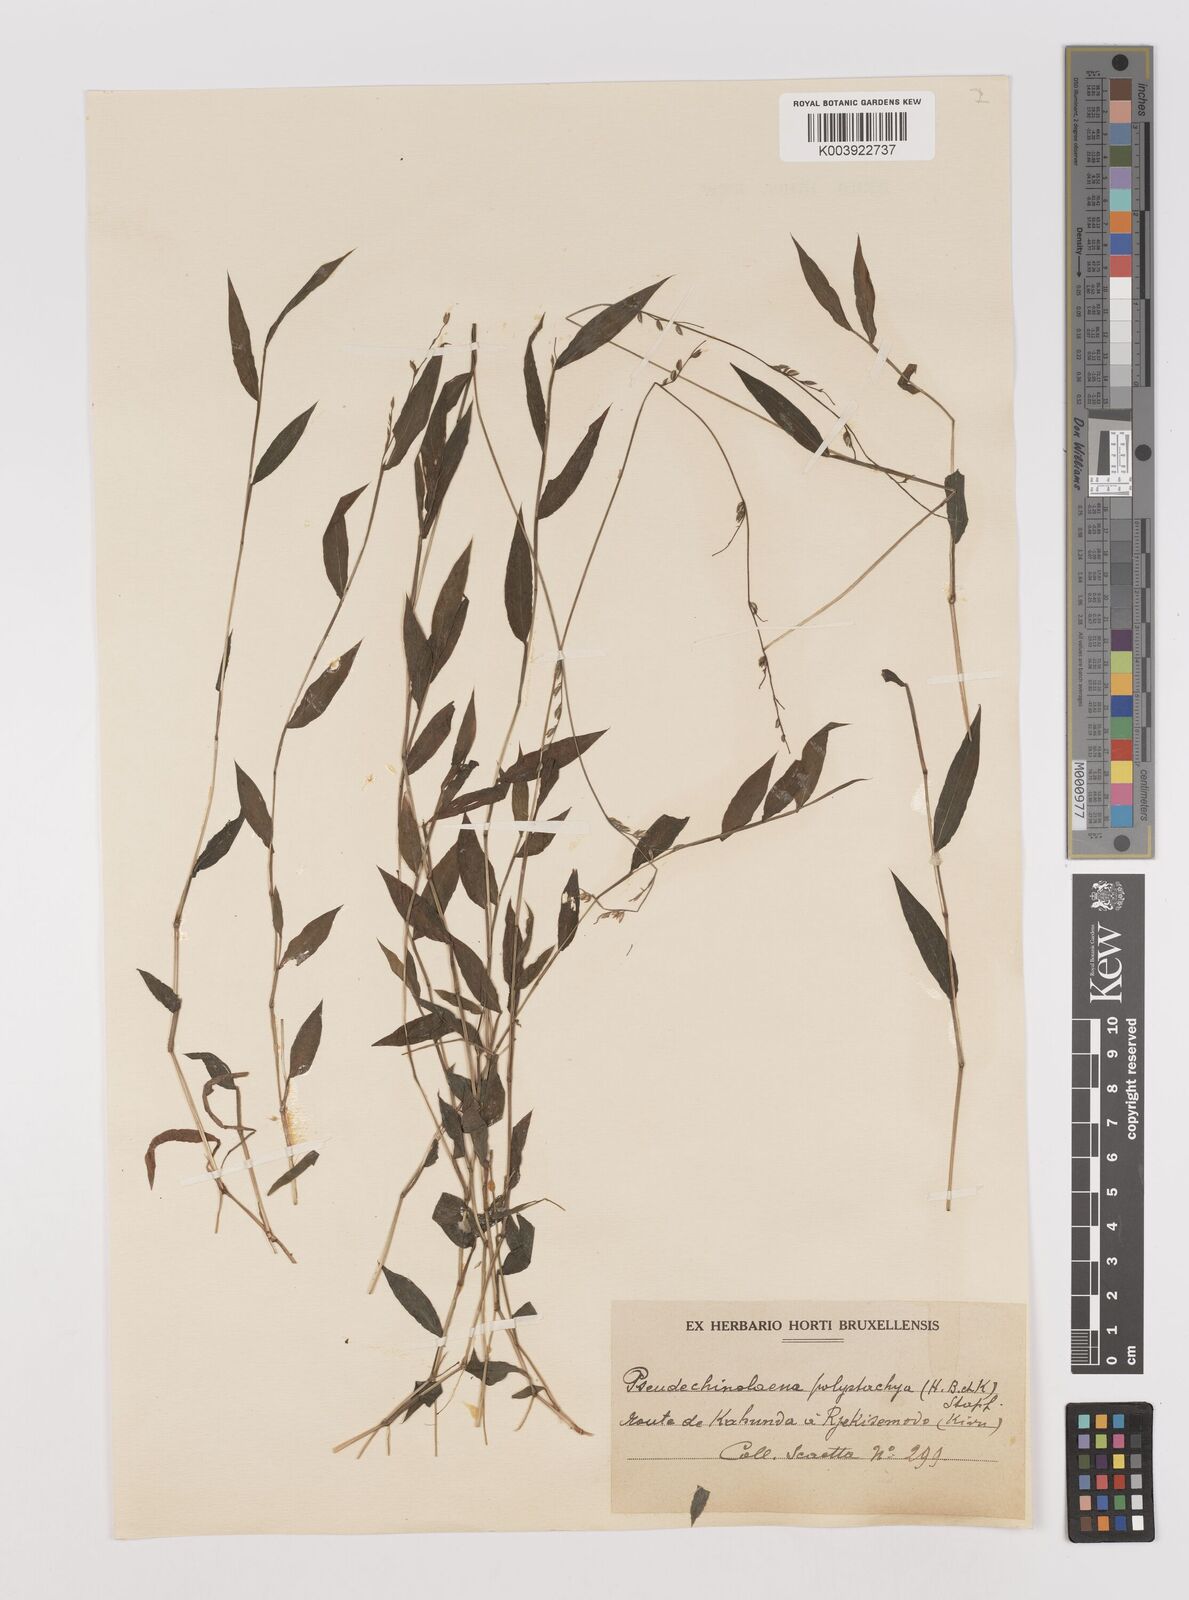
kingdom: Plantae
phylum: Tracheophyta
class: Liliopsida
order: Poales
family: Poaceae
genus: Pseudechinolaena
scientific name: Pseudechinolaena polystachya
